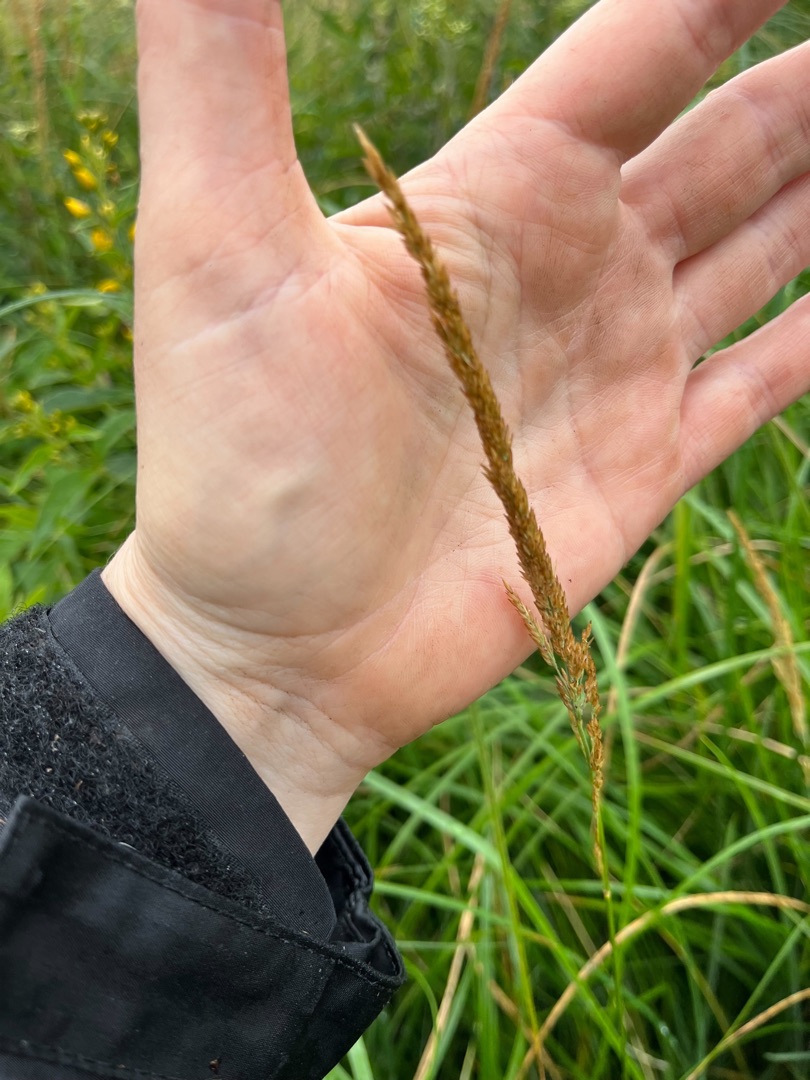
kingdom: Plantae
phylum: Tracheophyta
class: Liliopsida
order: Poales
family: Poaceae
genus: Achnatherum
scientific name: Achnatherum calamagrostis
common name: Stivtoppet rørhvene
